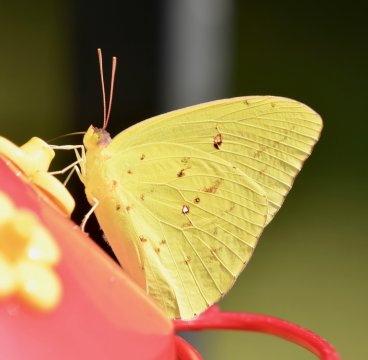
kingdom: Animalia
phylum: Arthropoda
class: Insecta
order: Lepidoptera
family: Pieridae
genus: Phoebis
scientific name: Phoebis sennae
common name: Cloudless Sulphur
